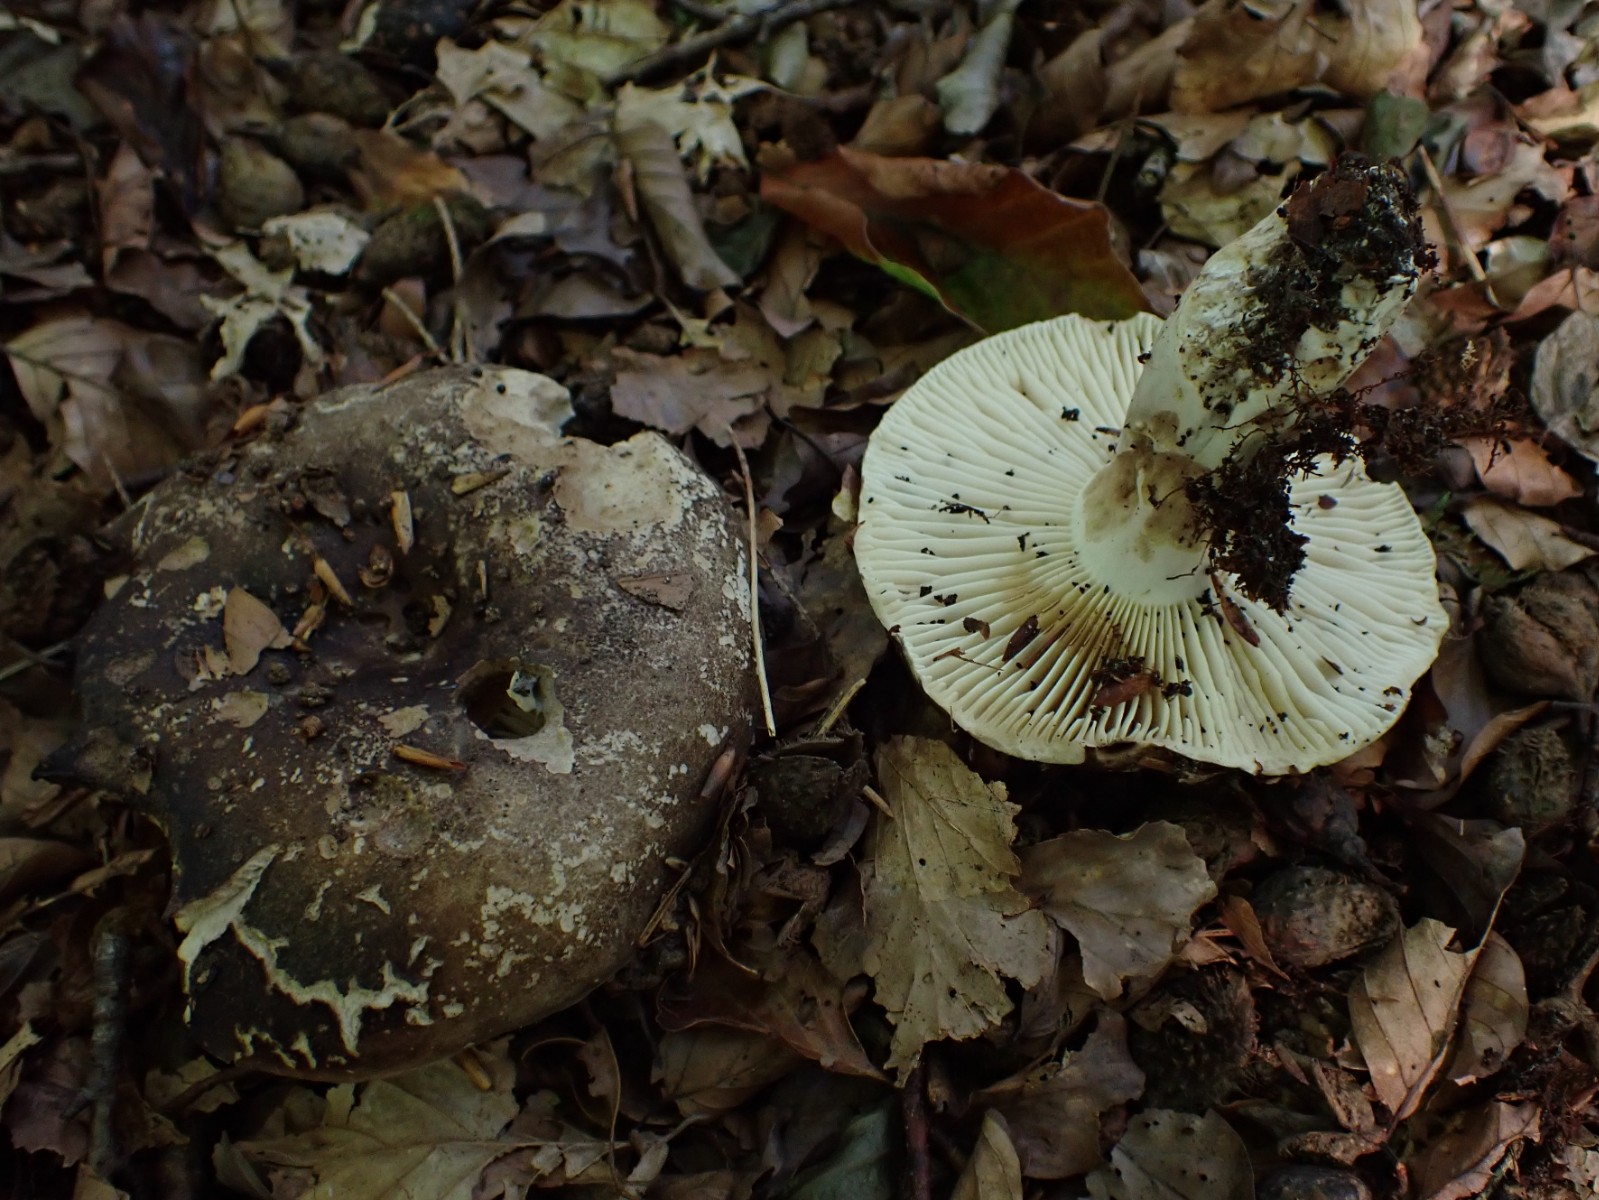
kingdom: Fungi
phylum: Basidiomycota
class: Agaricomycetes
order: Russulales
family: Russulaceae
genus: Russula
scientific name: Russula adusta
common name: sværtende skørhat
